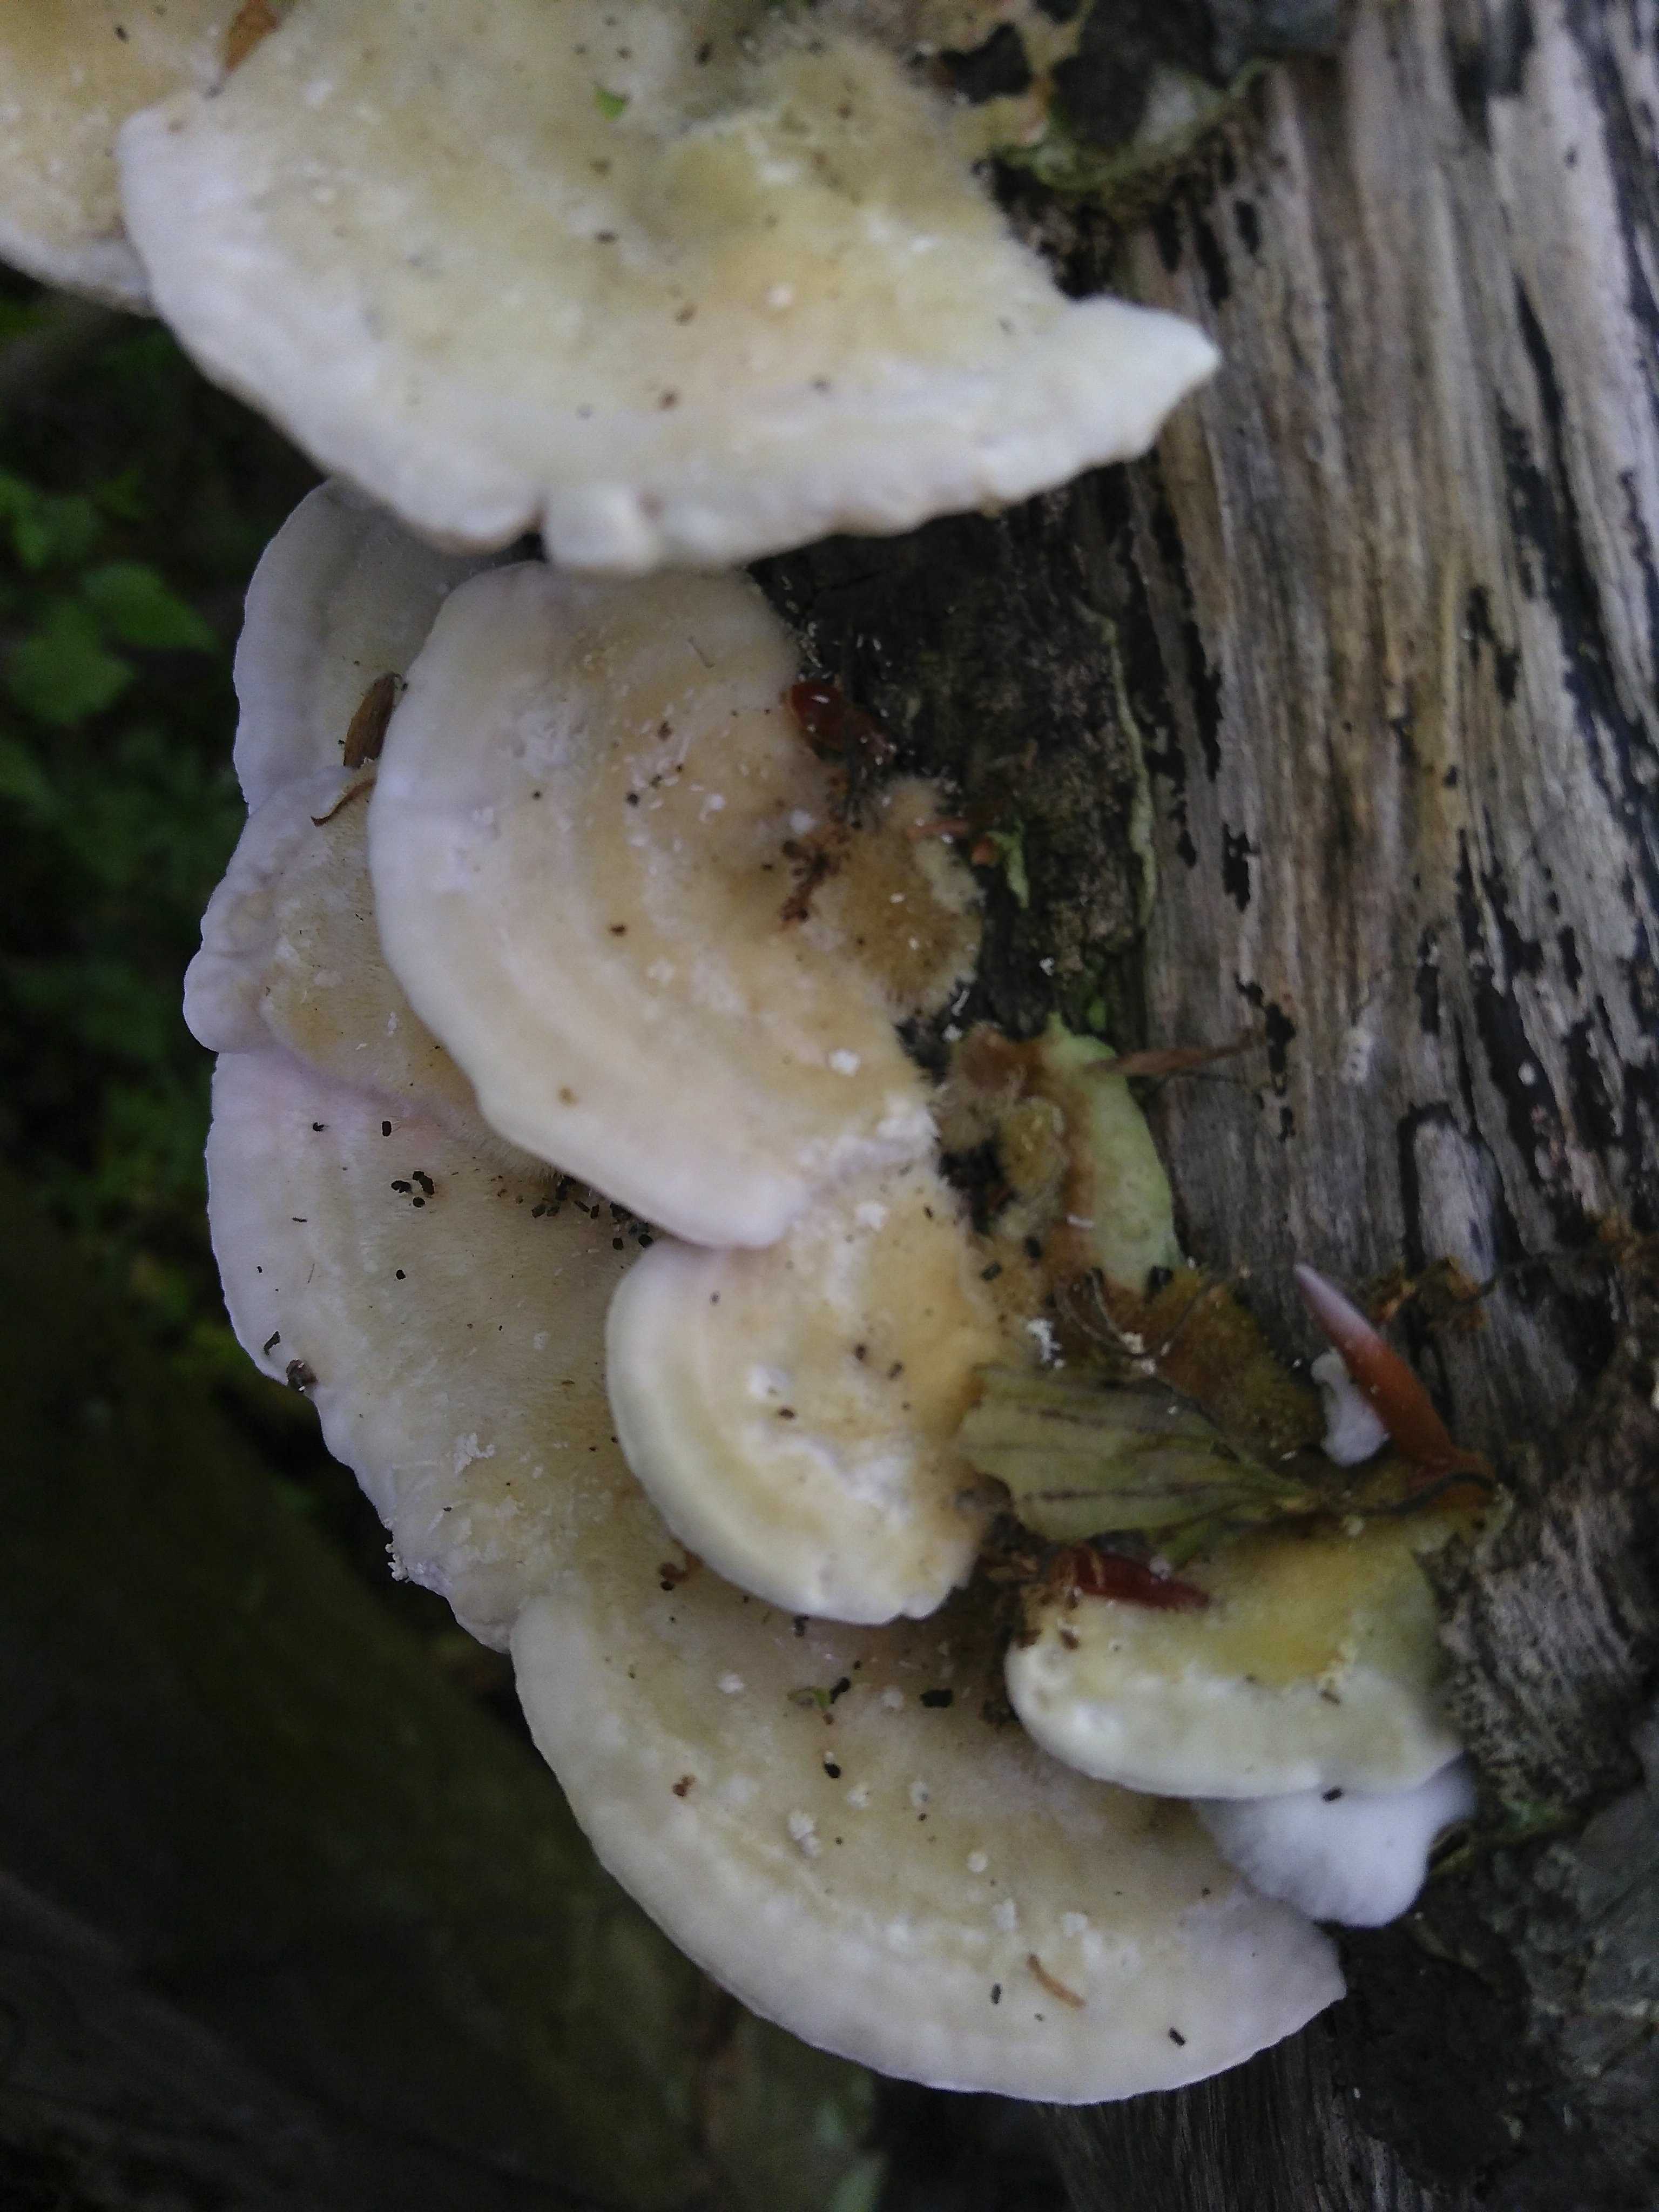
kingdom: Fungi
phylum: Basidiomycota
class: Agaricomycetes
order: Polyporales
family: Polyporaceae
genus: Trametes
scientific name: Trametes hirsuta
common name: håret læderporesvamp
